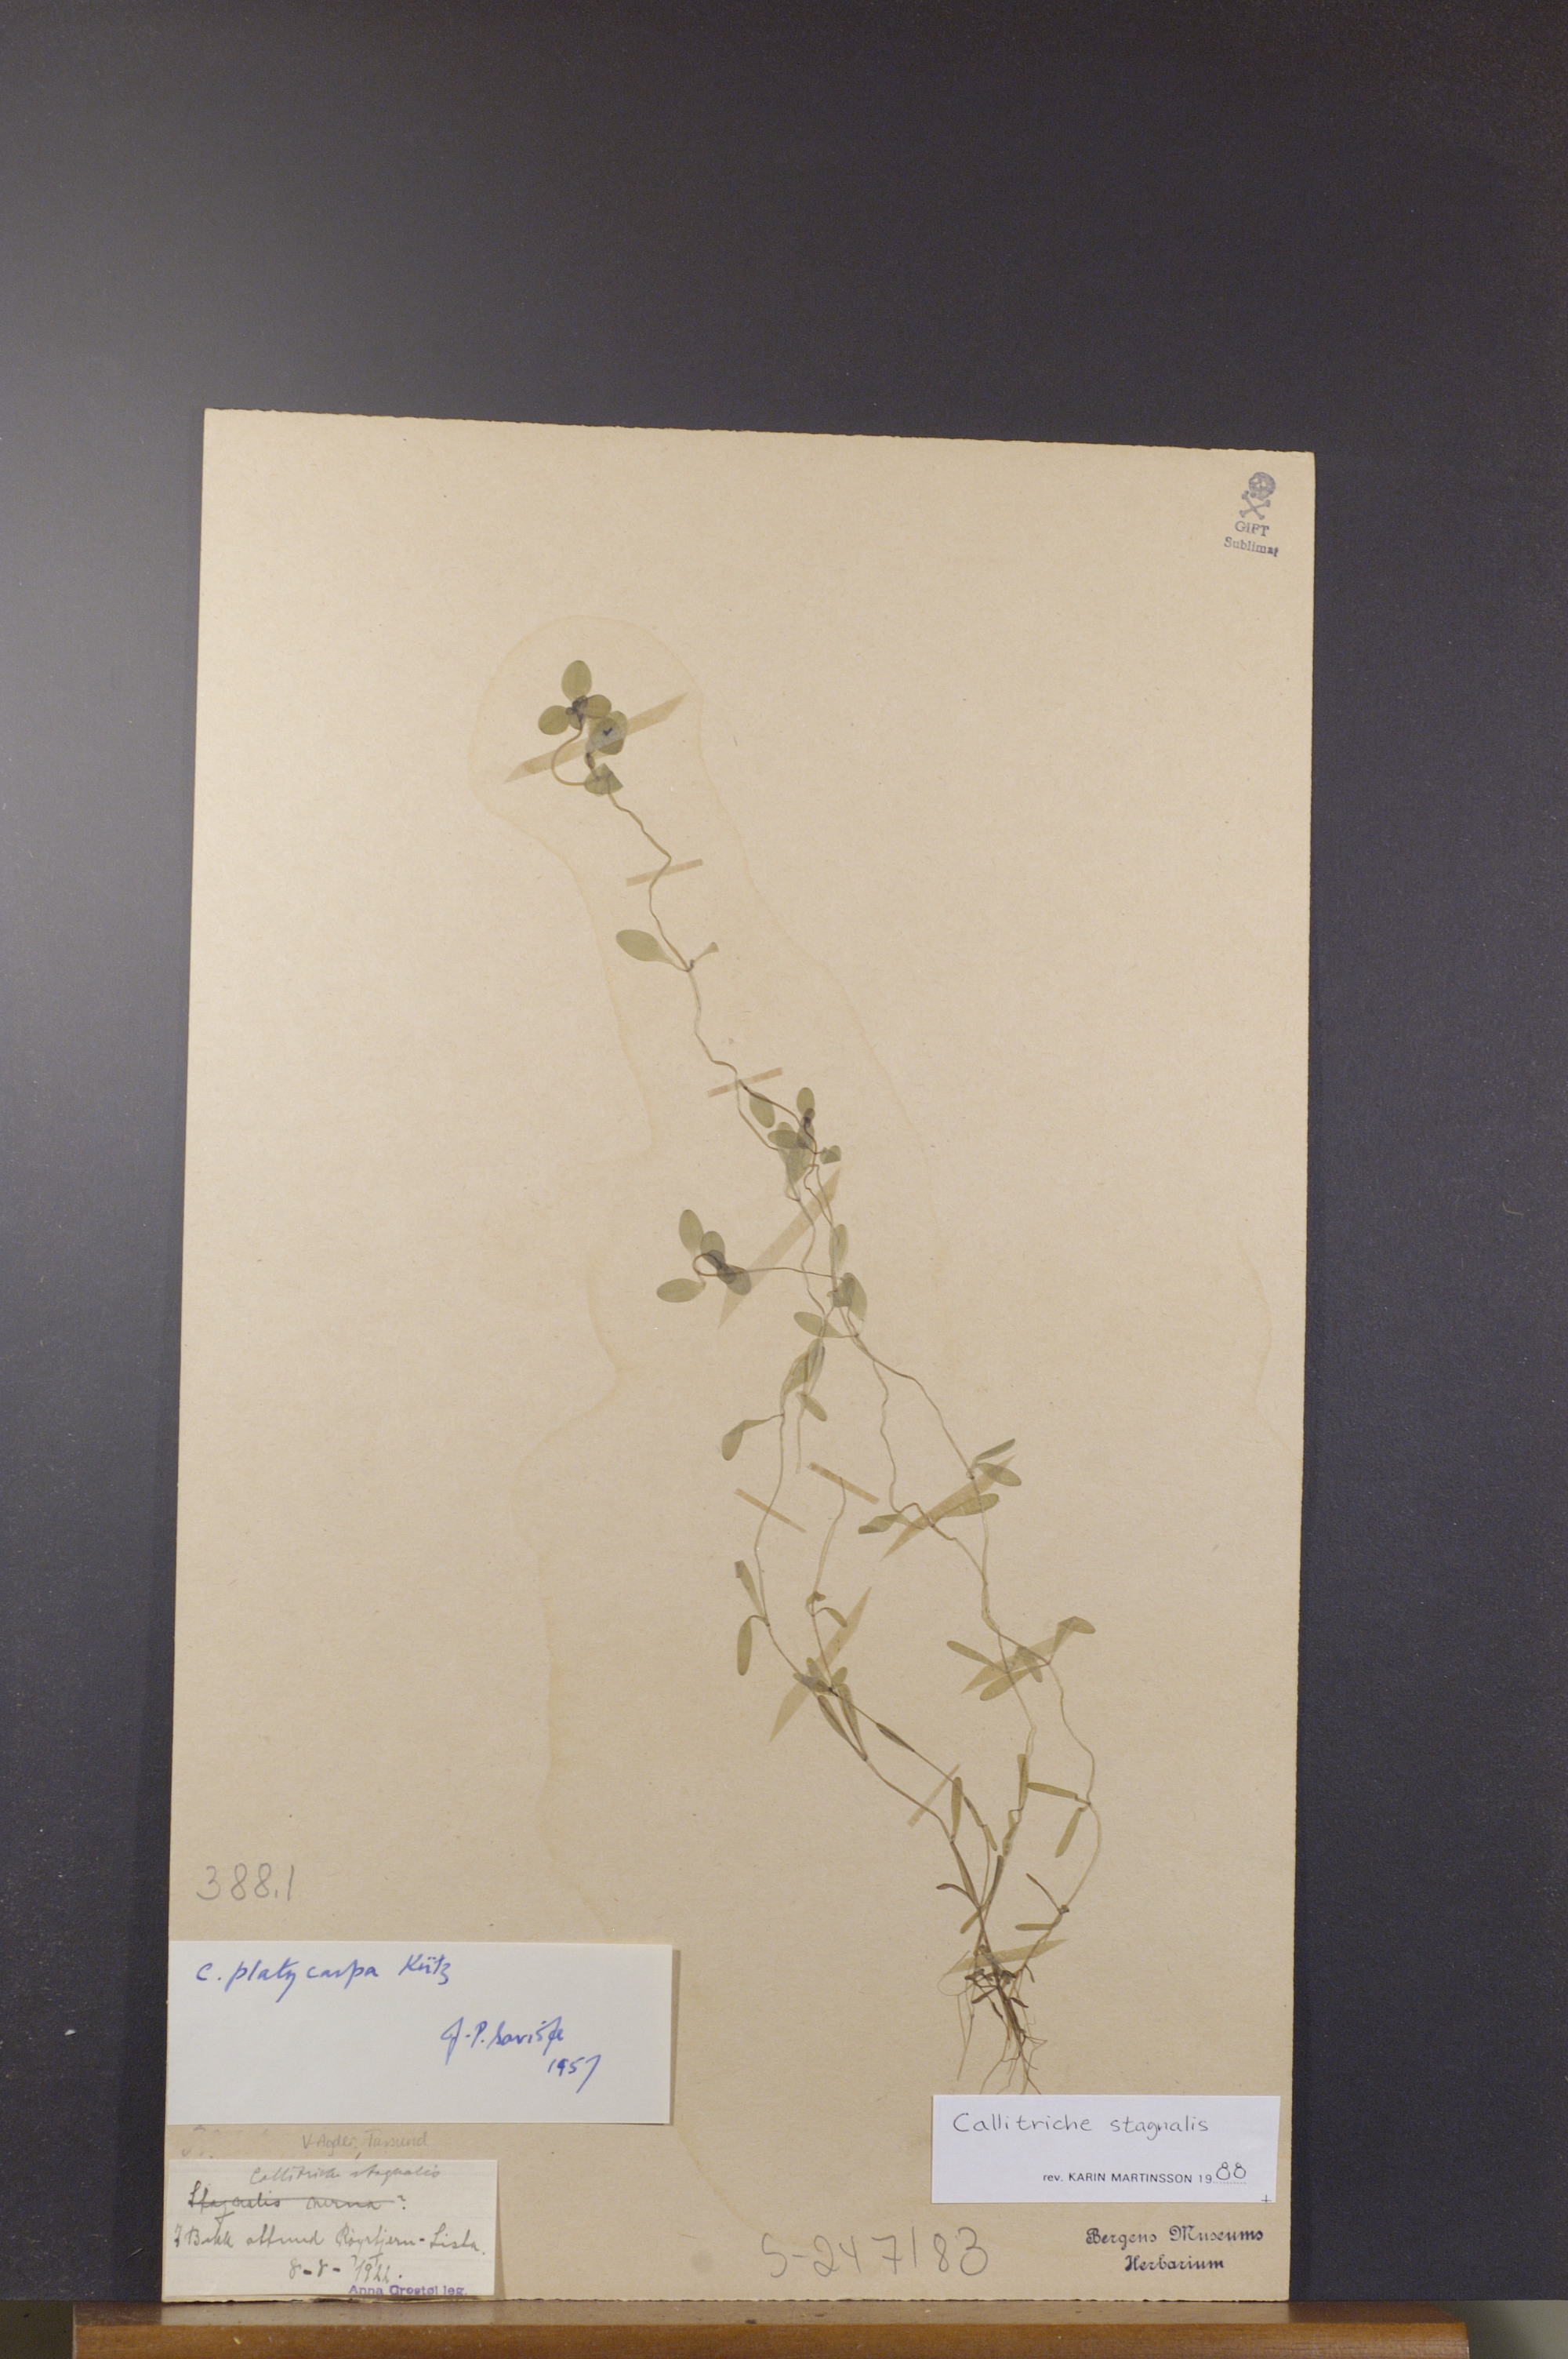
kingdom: Plantae
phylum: Tracheophyta
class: Magnoliopsida
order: Lamiales
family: Plantaginaceae
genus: Callitriche
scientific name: Callitriche stagnalis
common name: Common water-starwort
